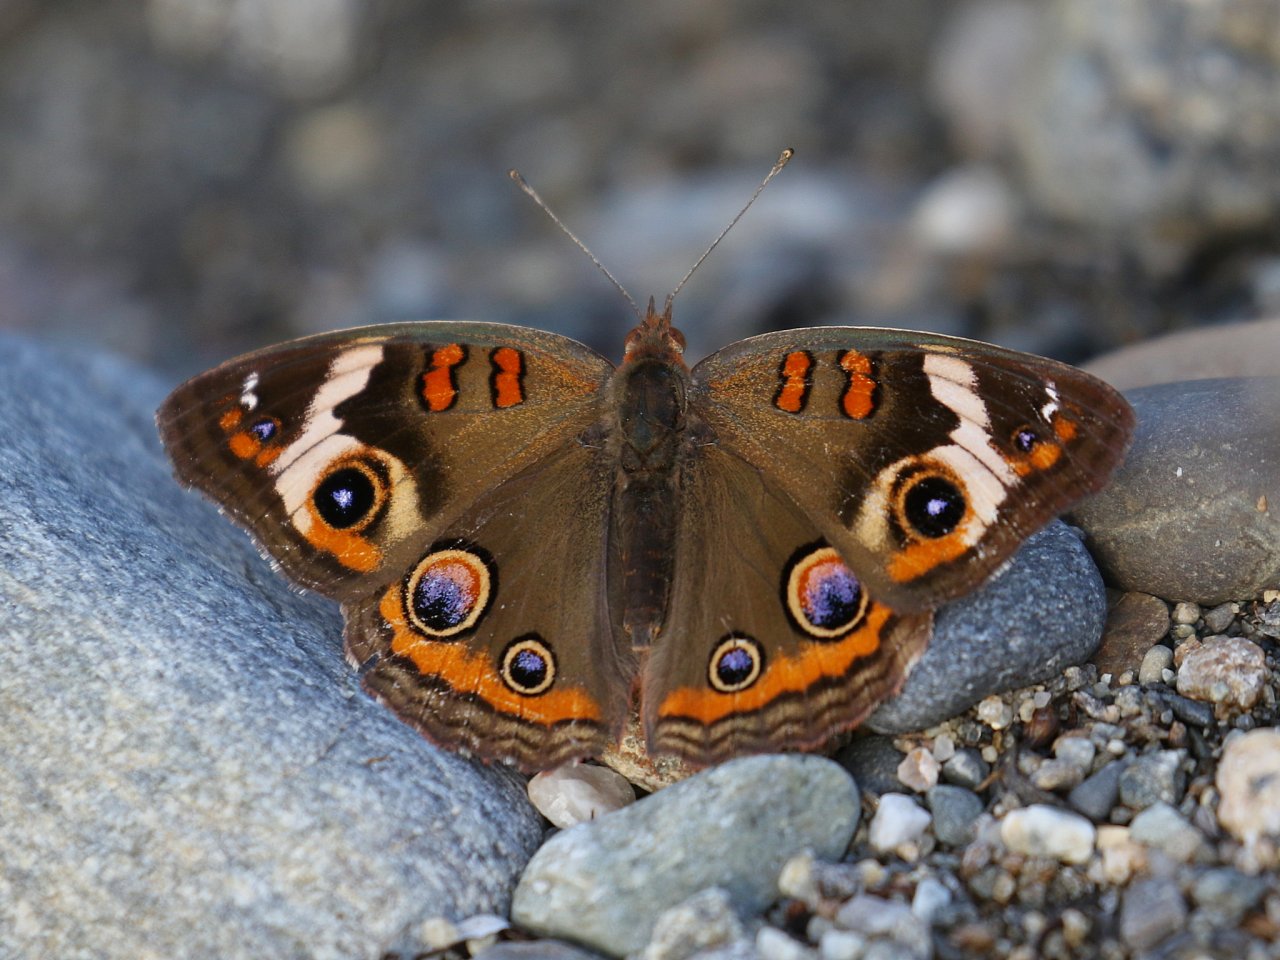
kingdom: Animalia
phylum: Arthropoda
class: Insecta
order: Lepidoptera
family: Nymphalidae
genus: Junonia
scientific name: Junonia coenia
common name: Common Buckeye
